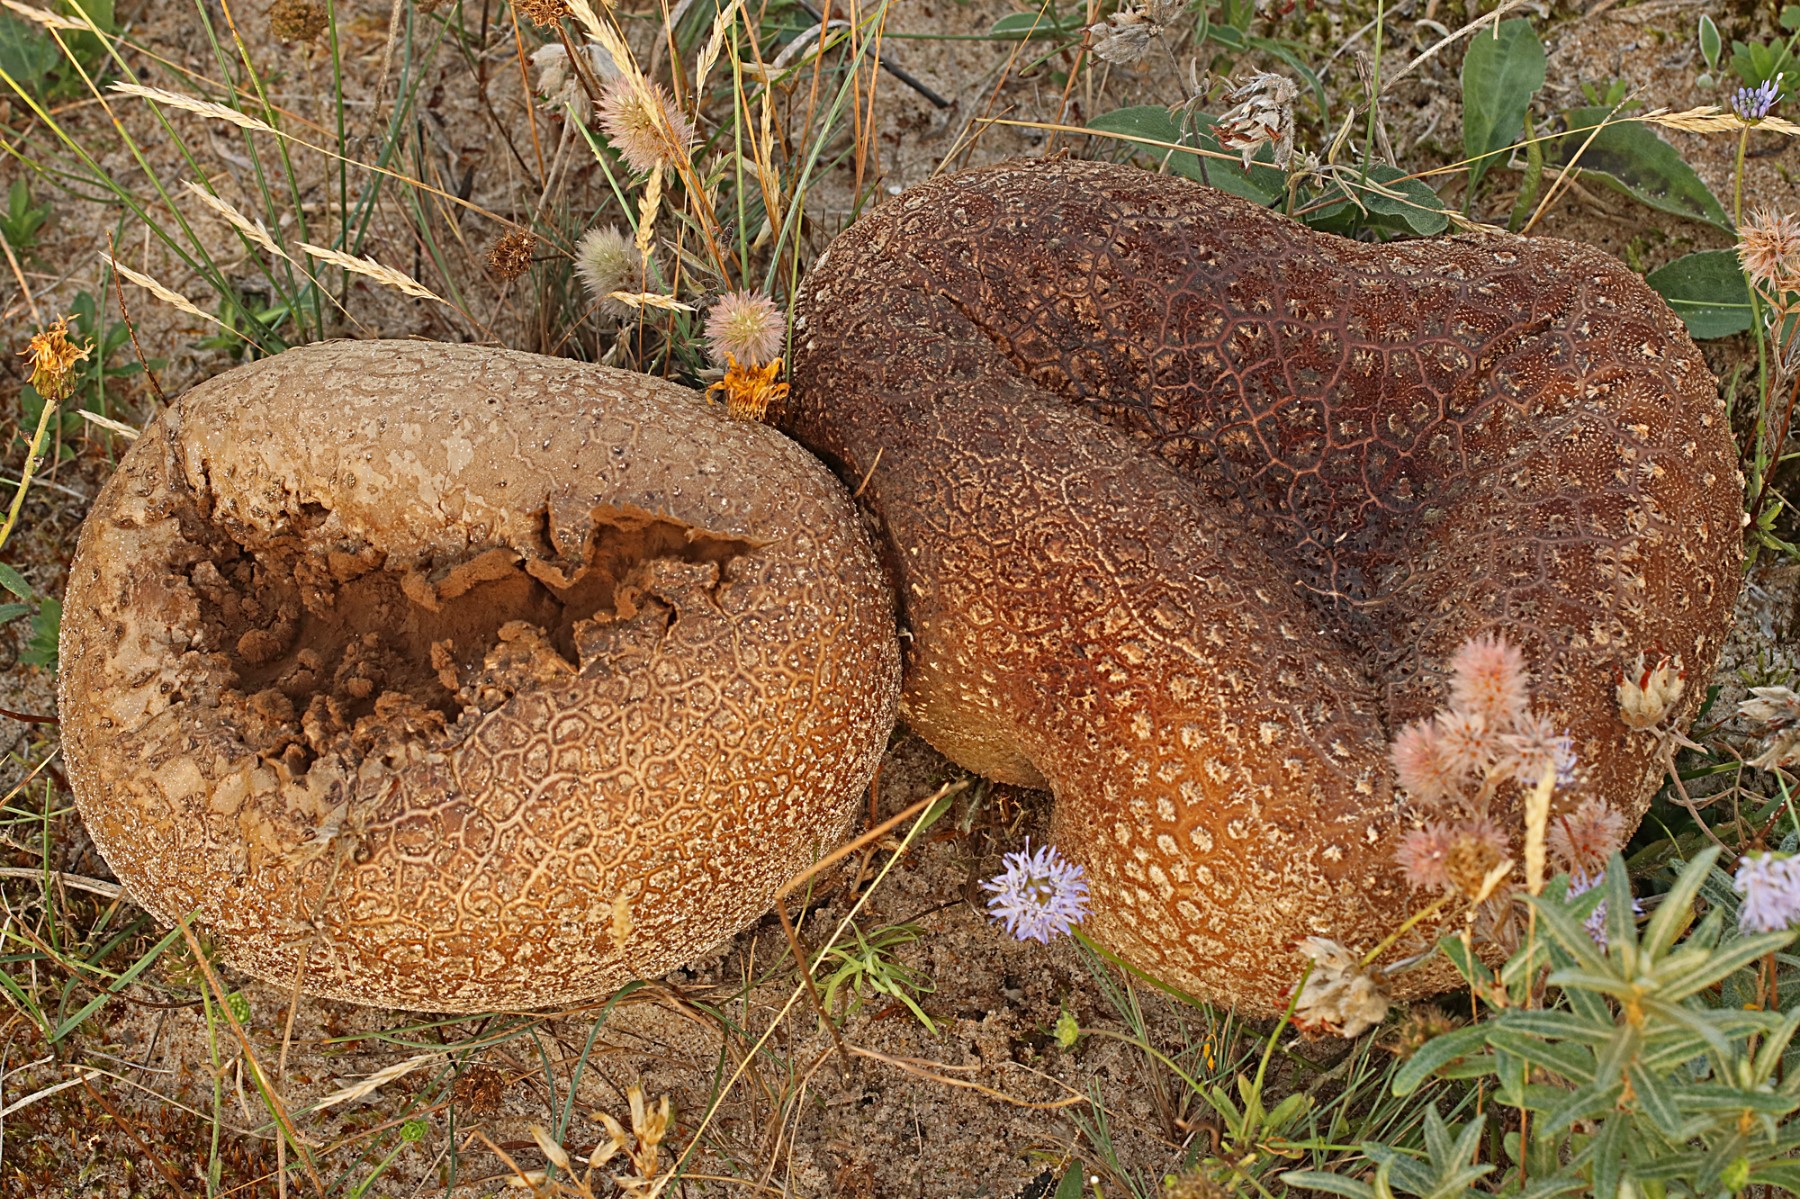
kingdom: Fungi
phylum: Basidiomycota
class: Agaricomycetes
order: Agaricales
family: Lycoperdaceae
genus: Bovistella
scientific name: Bovistella utriformis
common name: skællet støvbold
